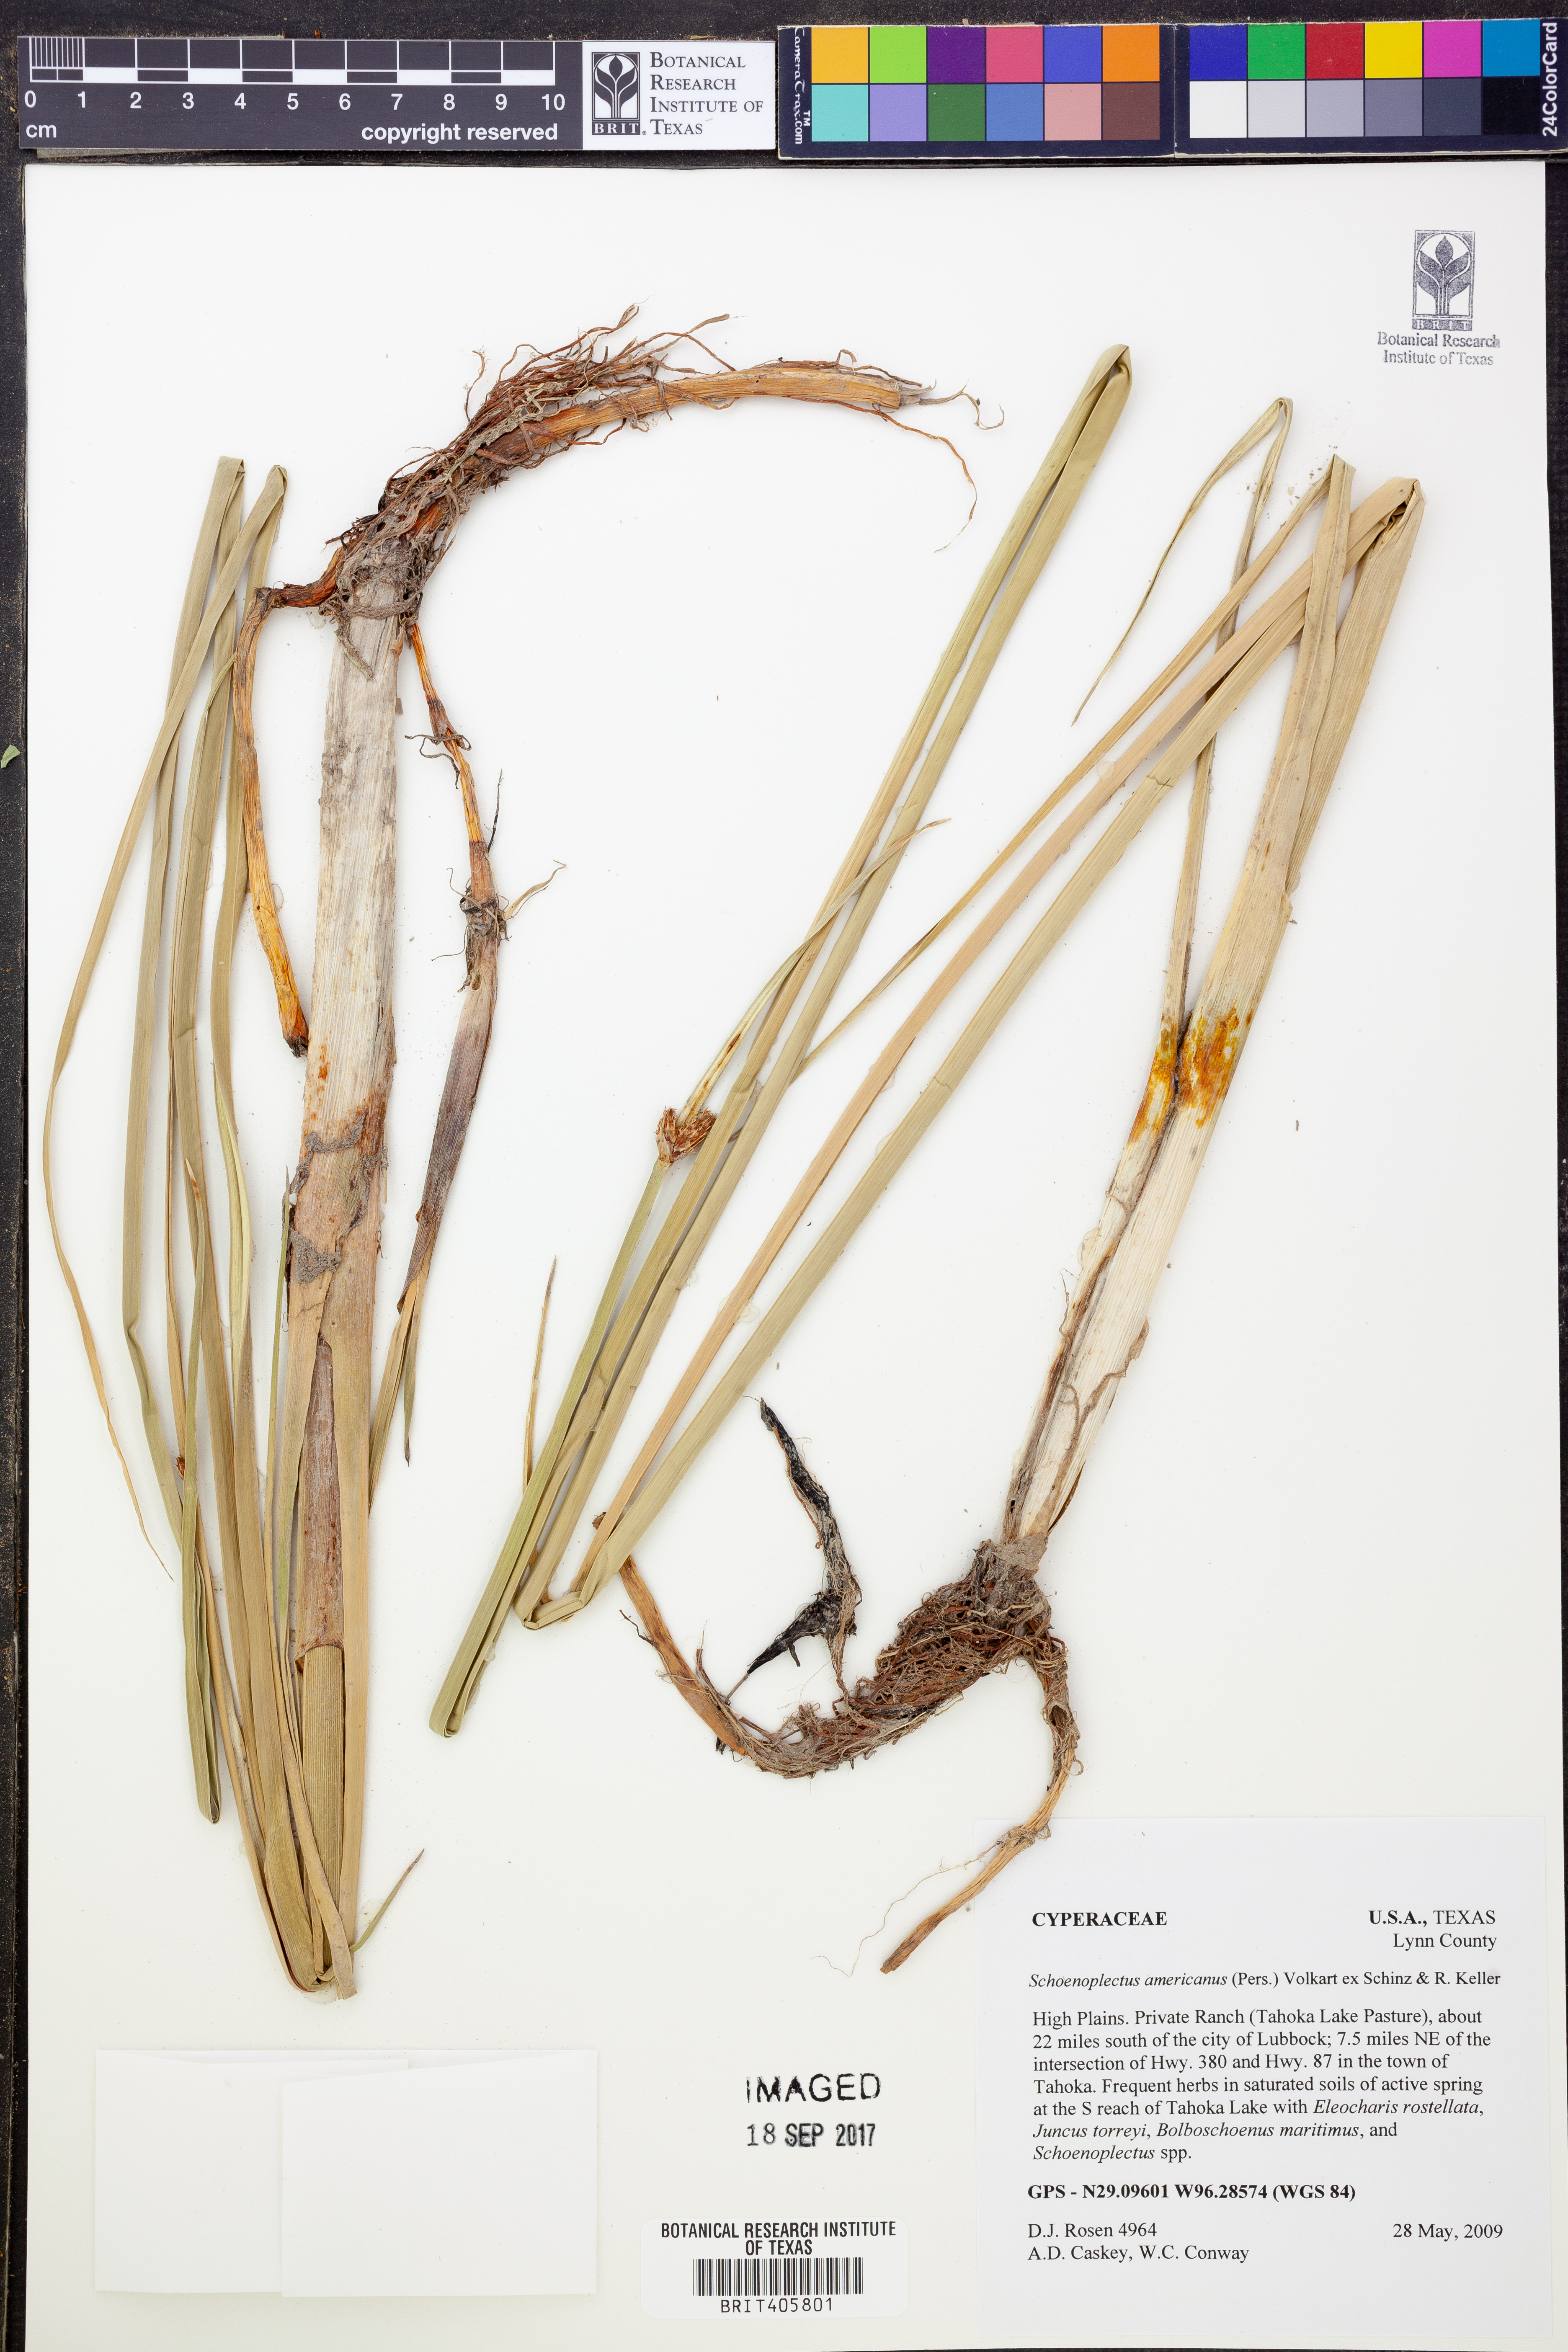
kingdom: Plantae
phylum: Tracheophyta
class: Liliopsida
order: Poales
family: Cyperaceae
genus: Schoenoplectus
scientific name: Schoenoplectus americanus
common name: American three-square bulrush
